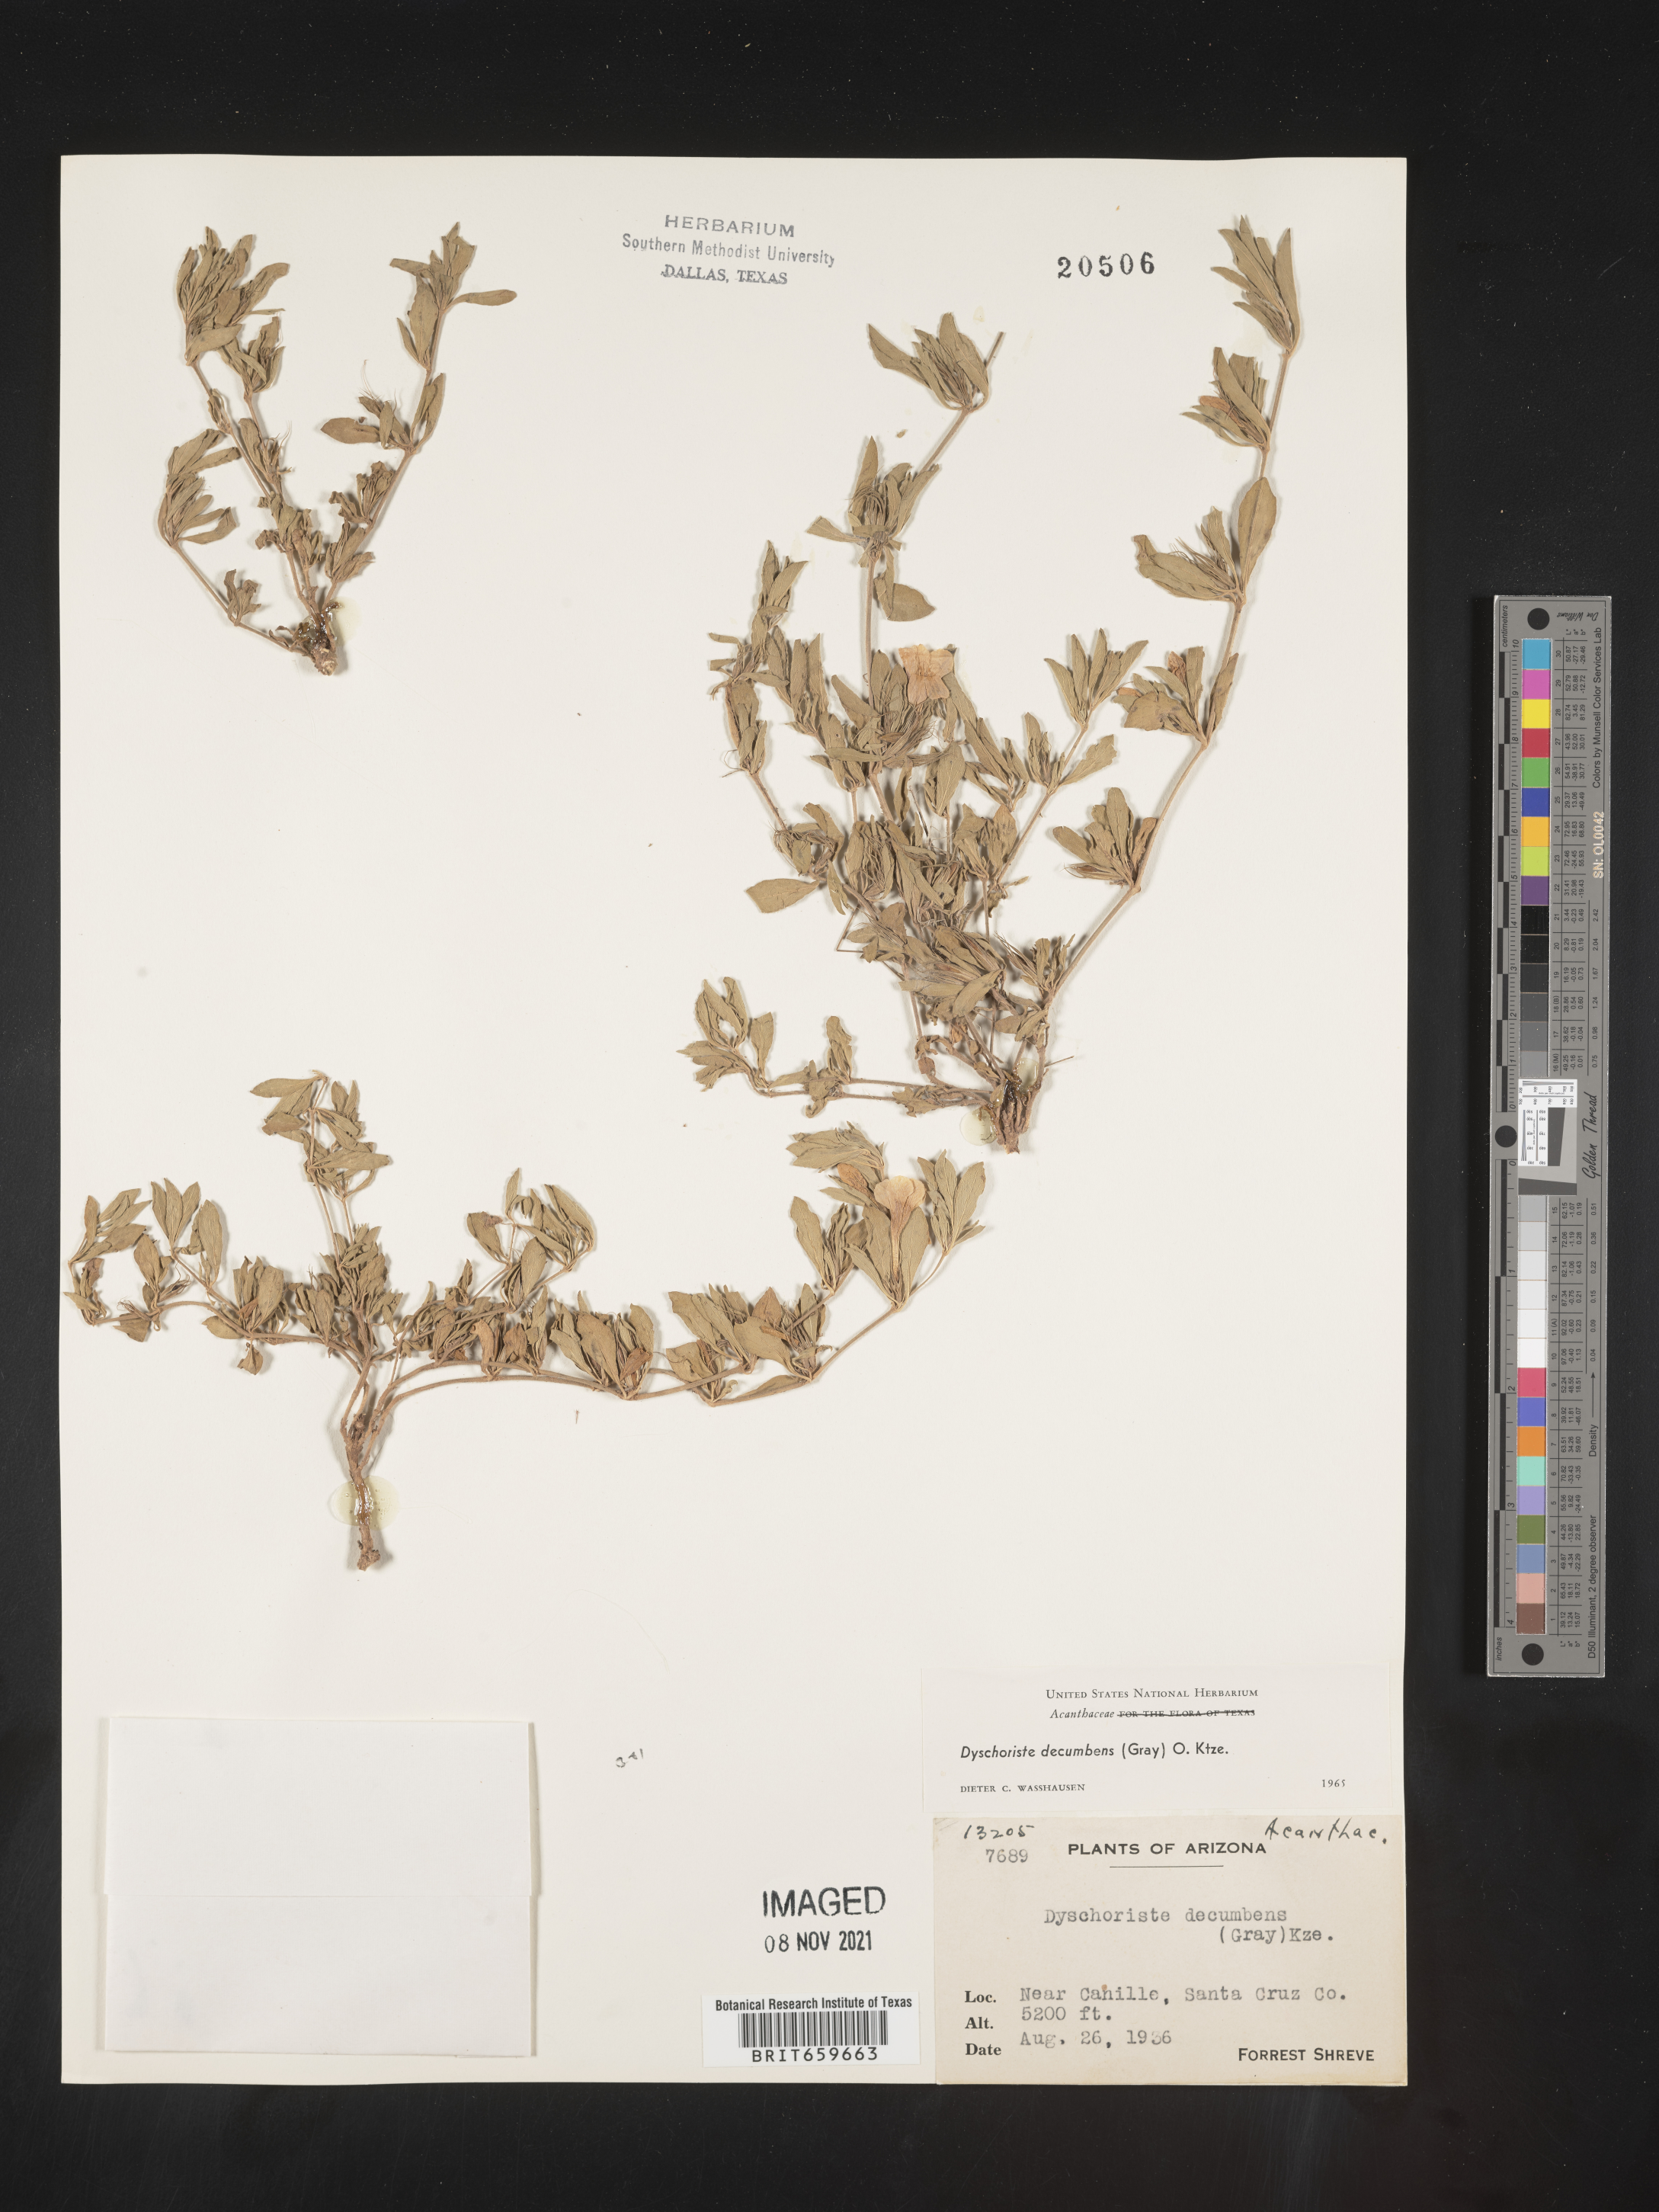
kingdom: Plantae
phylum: Tracheophyta
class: Magnoliopsida
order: Lamiales
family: Acanthaceae
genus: Dyschoriste
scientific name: Dyschoriste
